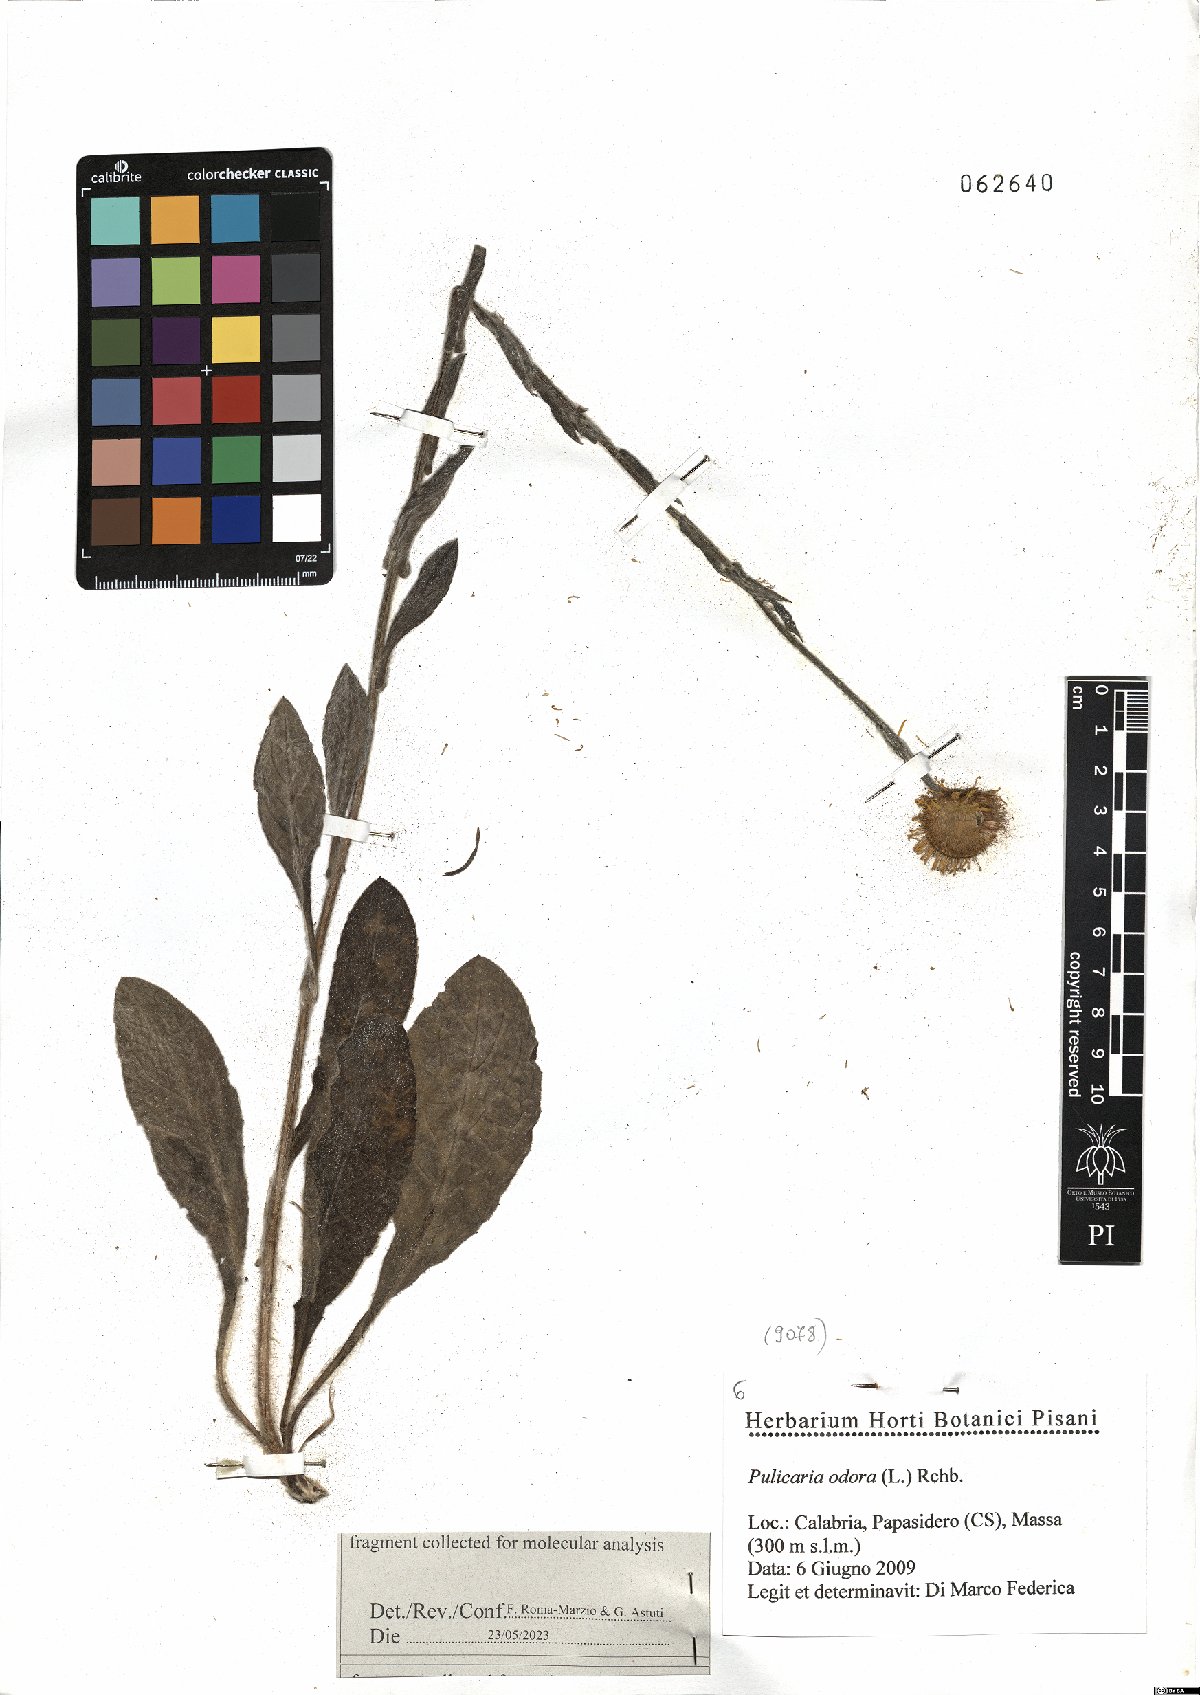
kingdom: Plantae
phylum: Tracheophyta
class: Magnoliopsida
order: Asterales
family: Asteraceae
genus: Pulicaria
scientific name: Pulicaria odora
